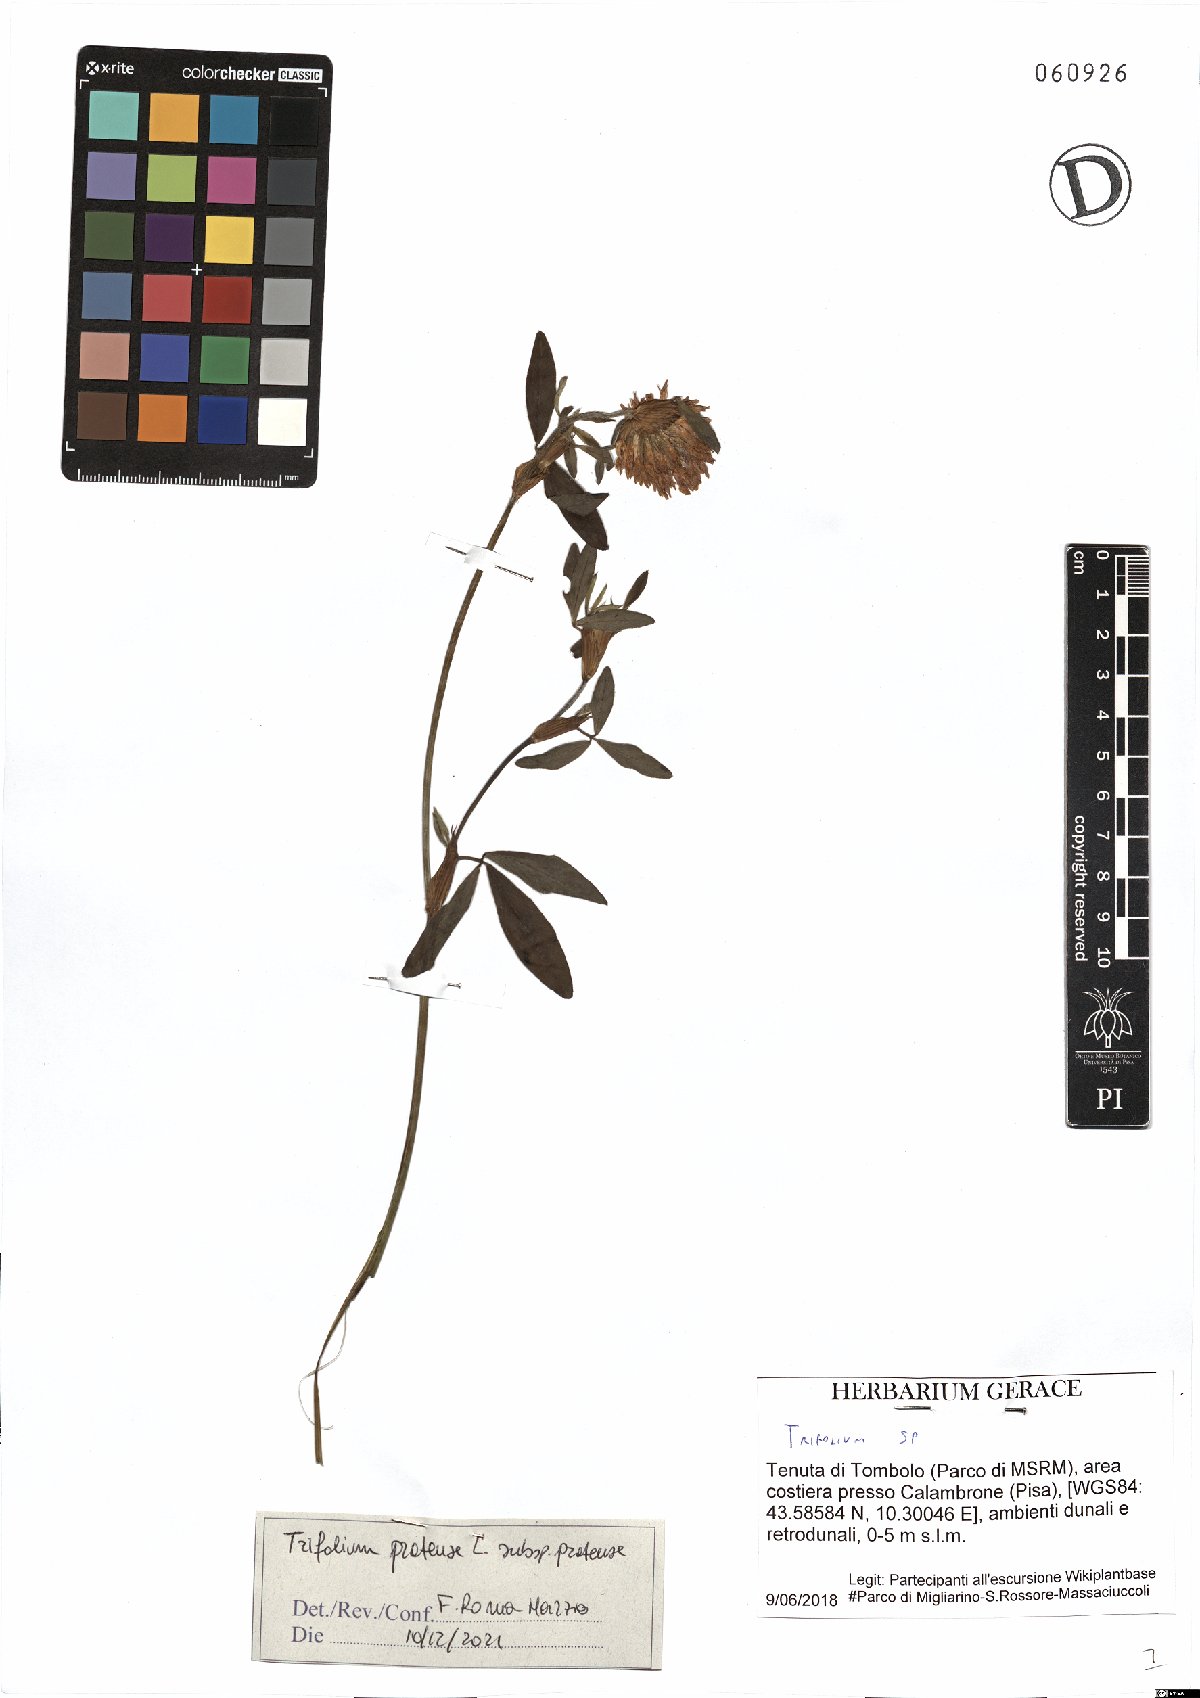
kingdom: Plantae
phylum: Tracheophyta
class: Magnoliopsida
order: Fabales
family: Fabaceae
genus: Trifolium
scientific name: Trifolium pratense
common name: Red clover
